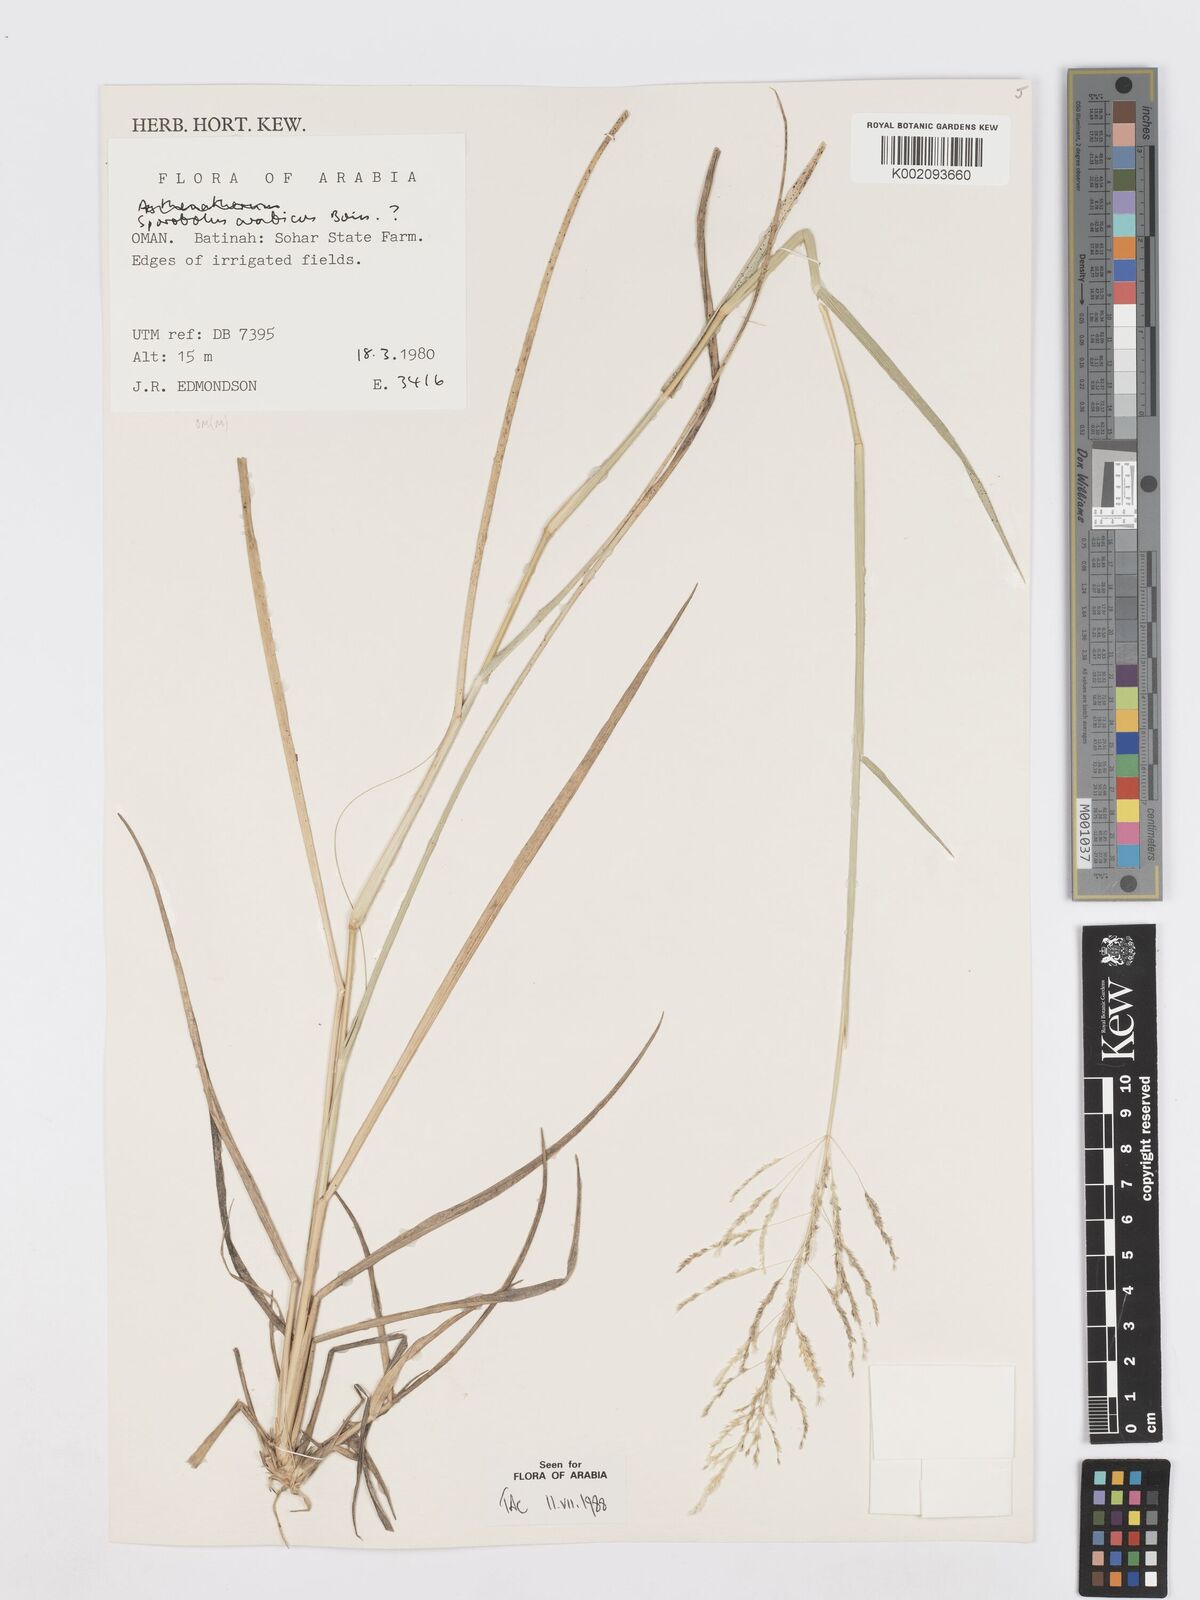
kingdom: Plantae
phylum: Tracheophyta
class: Liliopsida
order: Poales
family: Poaceae
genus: Sporobolus
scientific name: Sporobolus ioclados
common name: Pan dropseed
